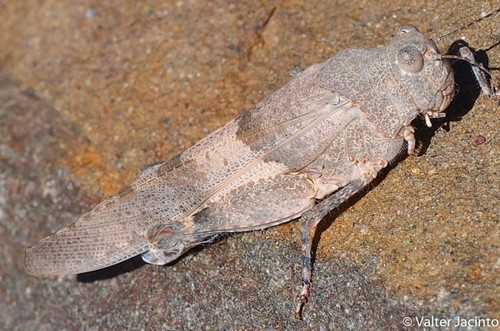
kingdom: Animalia
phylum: Arthropoda
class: Insecta
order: Orthoptera
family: Acrididae
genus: Sphingonotus
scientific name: Sphingonotus azurescens
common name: Azure sand grasshopper
